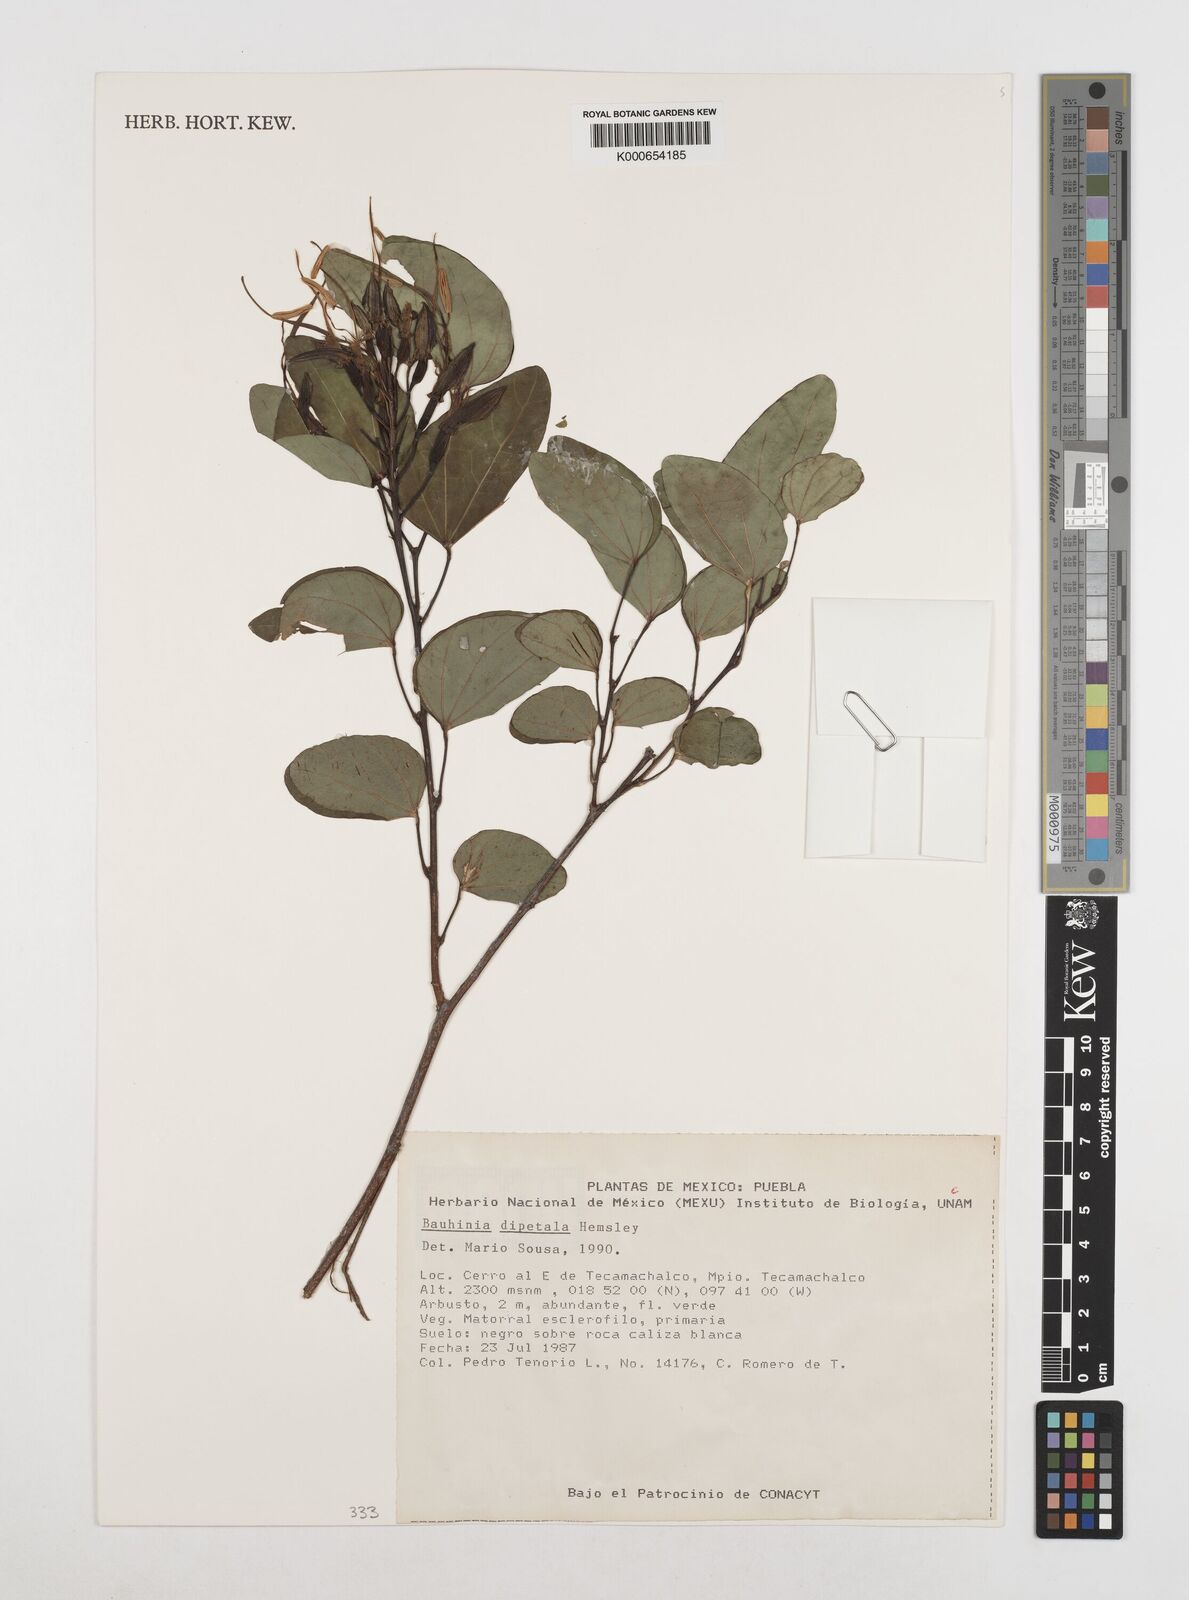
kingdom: Plantae
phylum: Tracheophyta
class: Magnoliopsida
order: Fabales
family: Fabaceae
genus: Bauhinia
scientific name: Bauhinia dipetala
